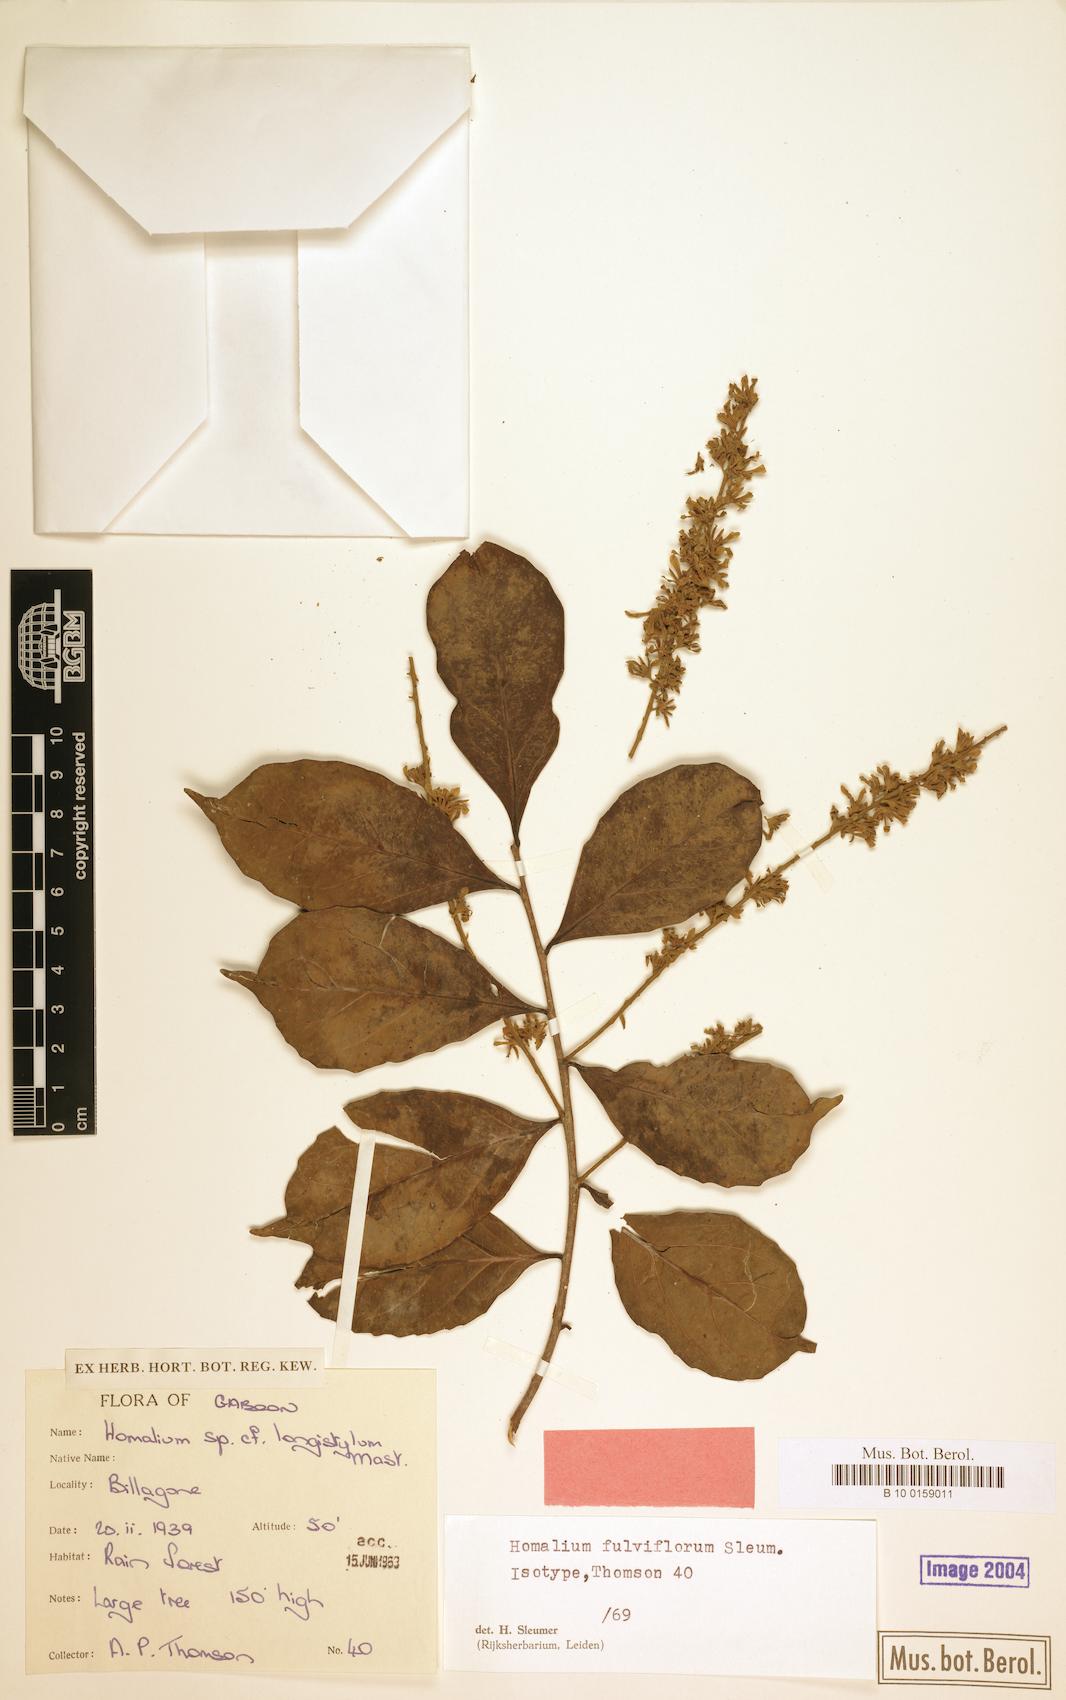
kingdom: Plantae
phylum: Tracheophyta
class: Magnoliopsida
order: Malpighiales
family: Salicaceae
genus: Homalium
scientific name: Homalium fulviflorum
